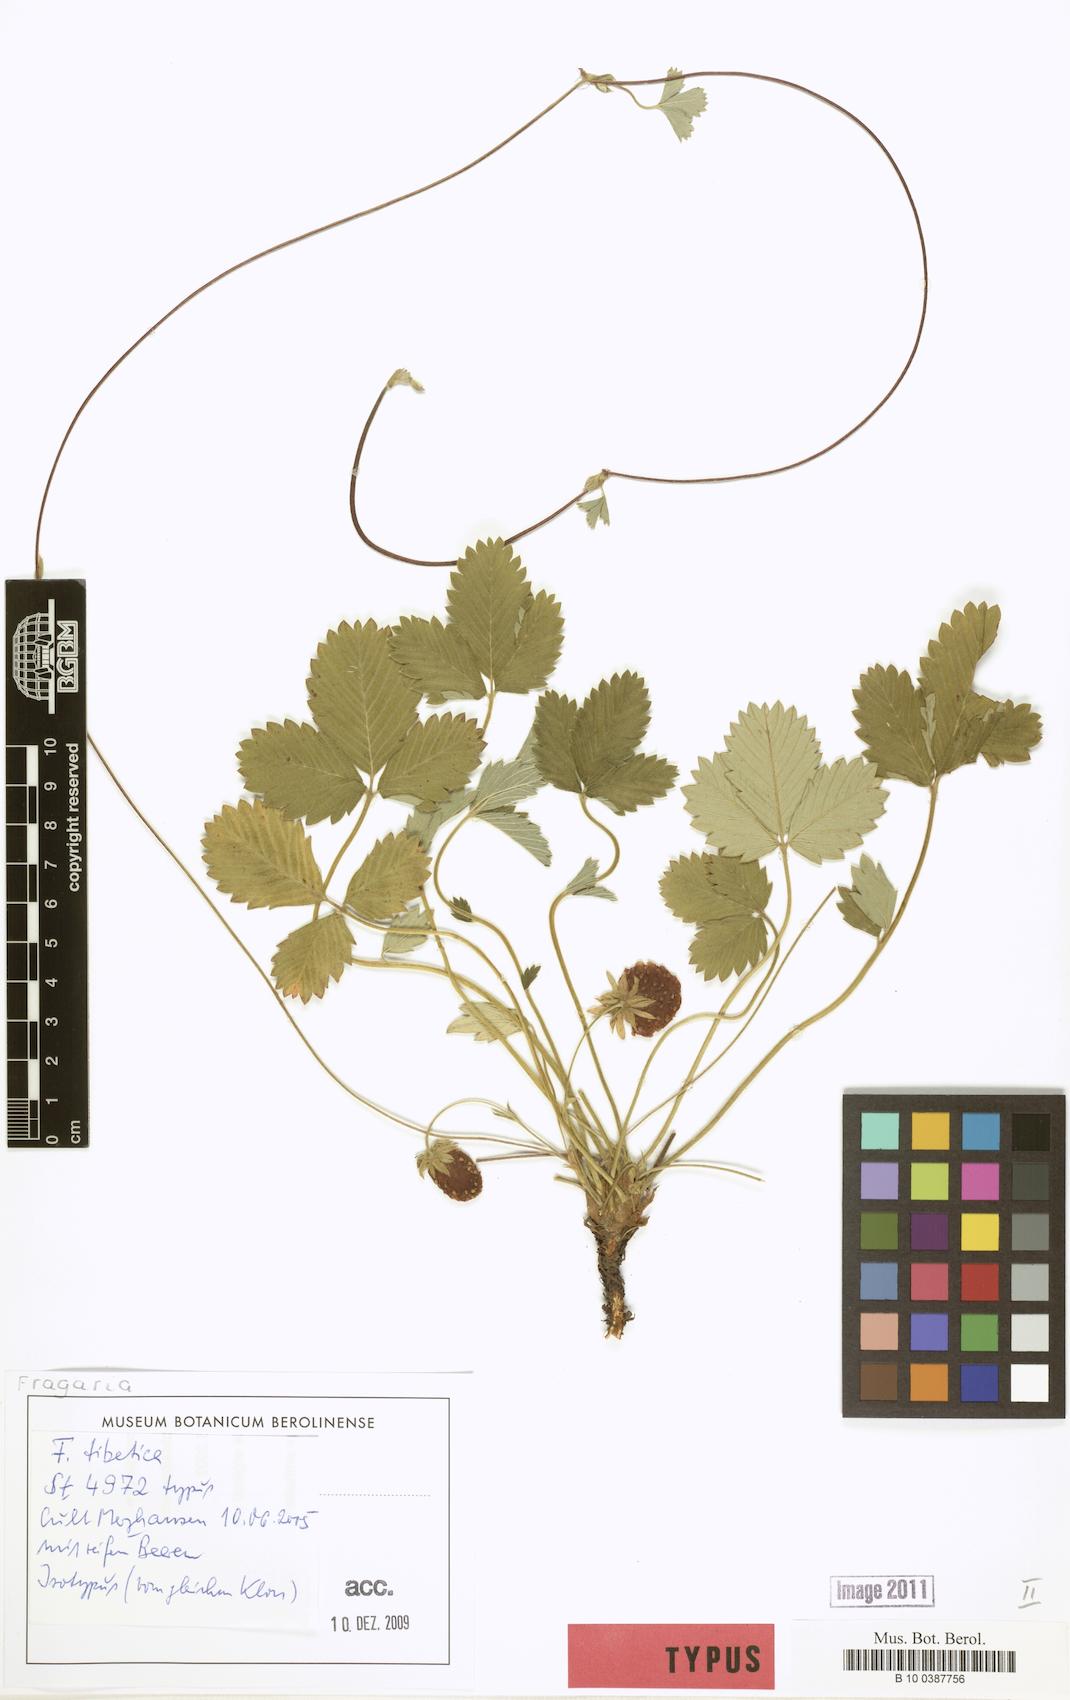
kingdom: Plantae
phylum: Tracheophyta
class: Magnoliopsida
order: Rosales
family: Rosaceae
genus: Fragaria
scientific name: Fragaria tibetica
